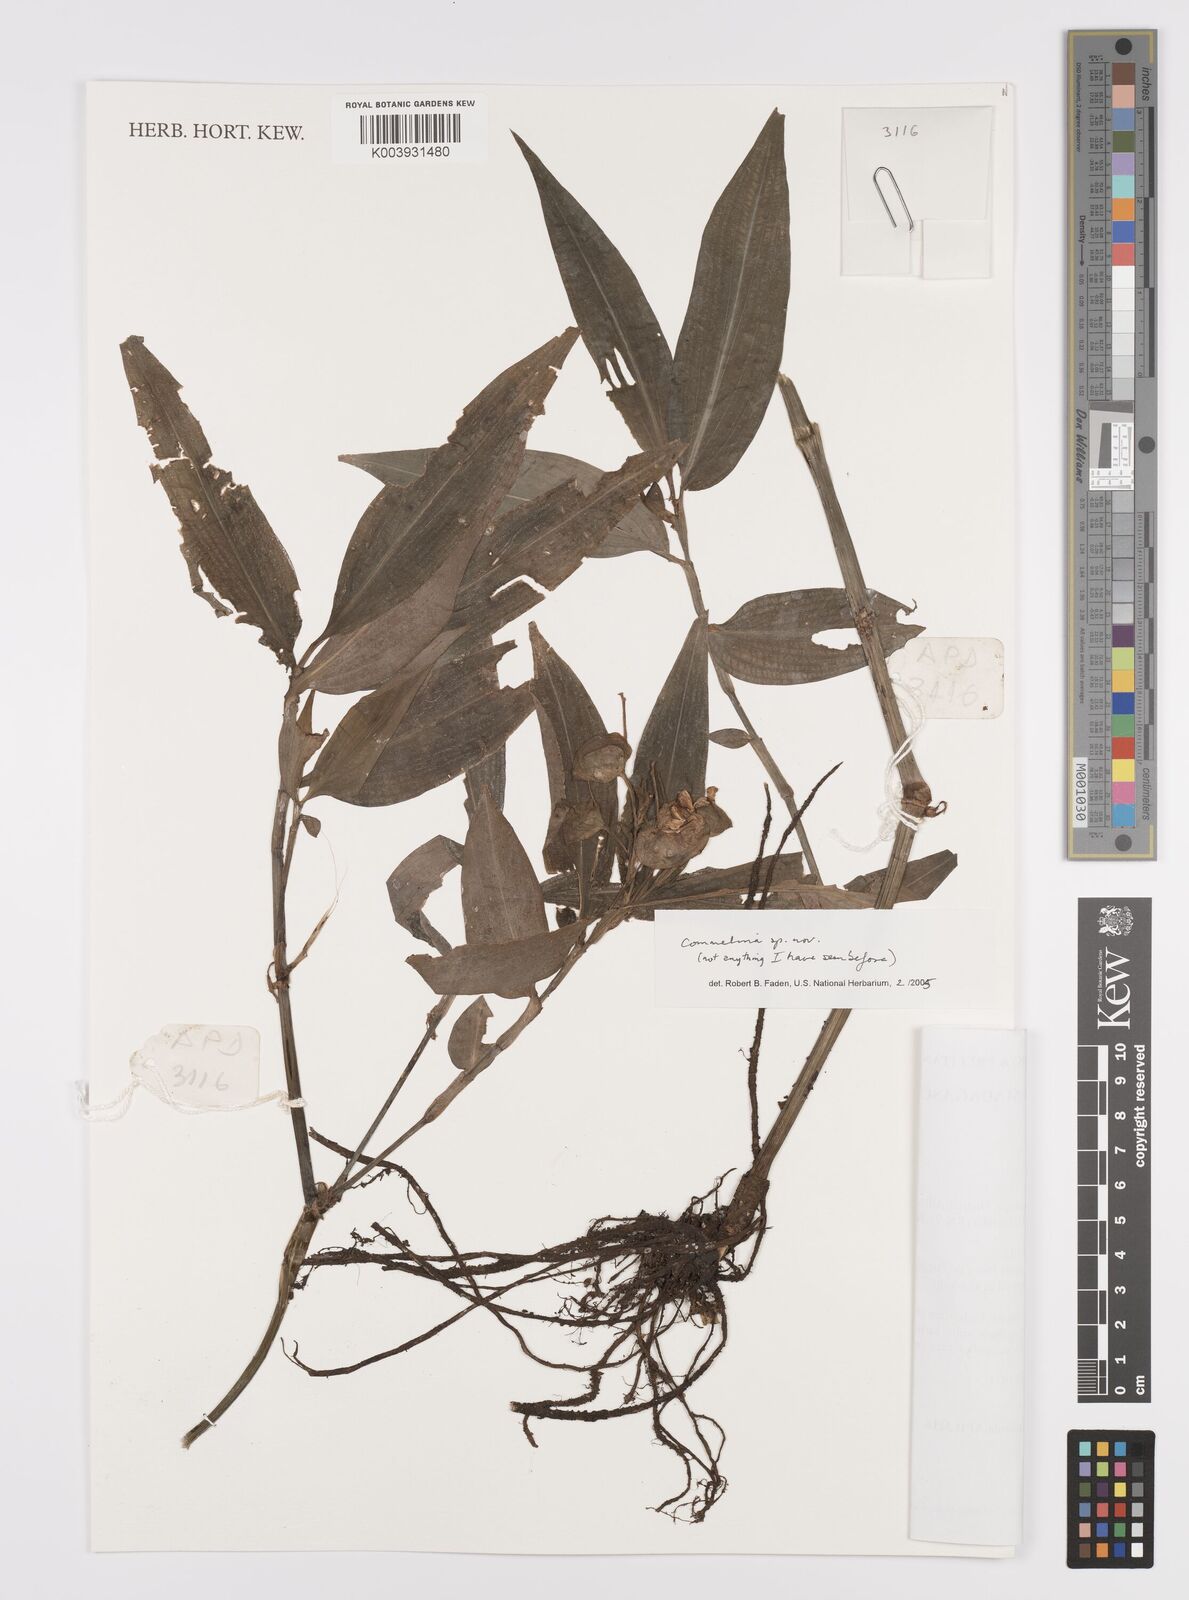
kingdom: Plantae
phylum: Tracheophyta
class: Liliopsida
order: Commelinales
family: Commelinaceae
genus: Commelina
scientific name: Commelina
